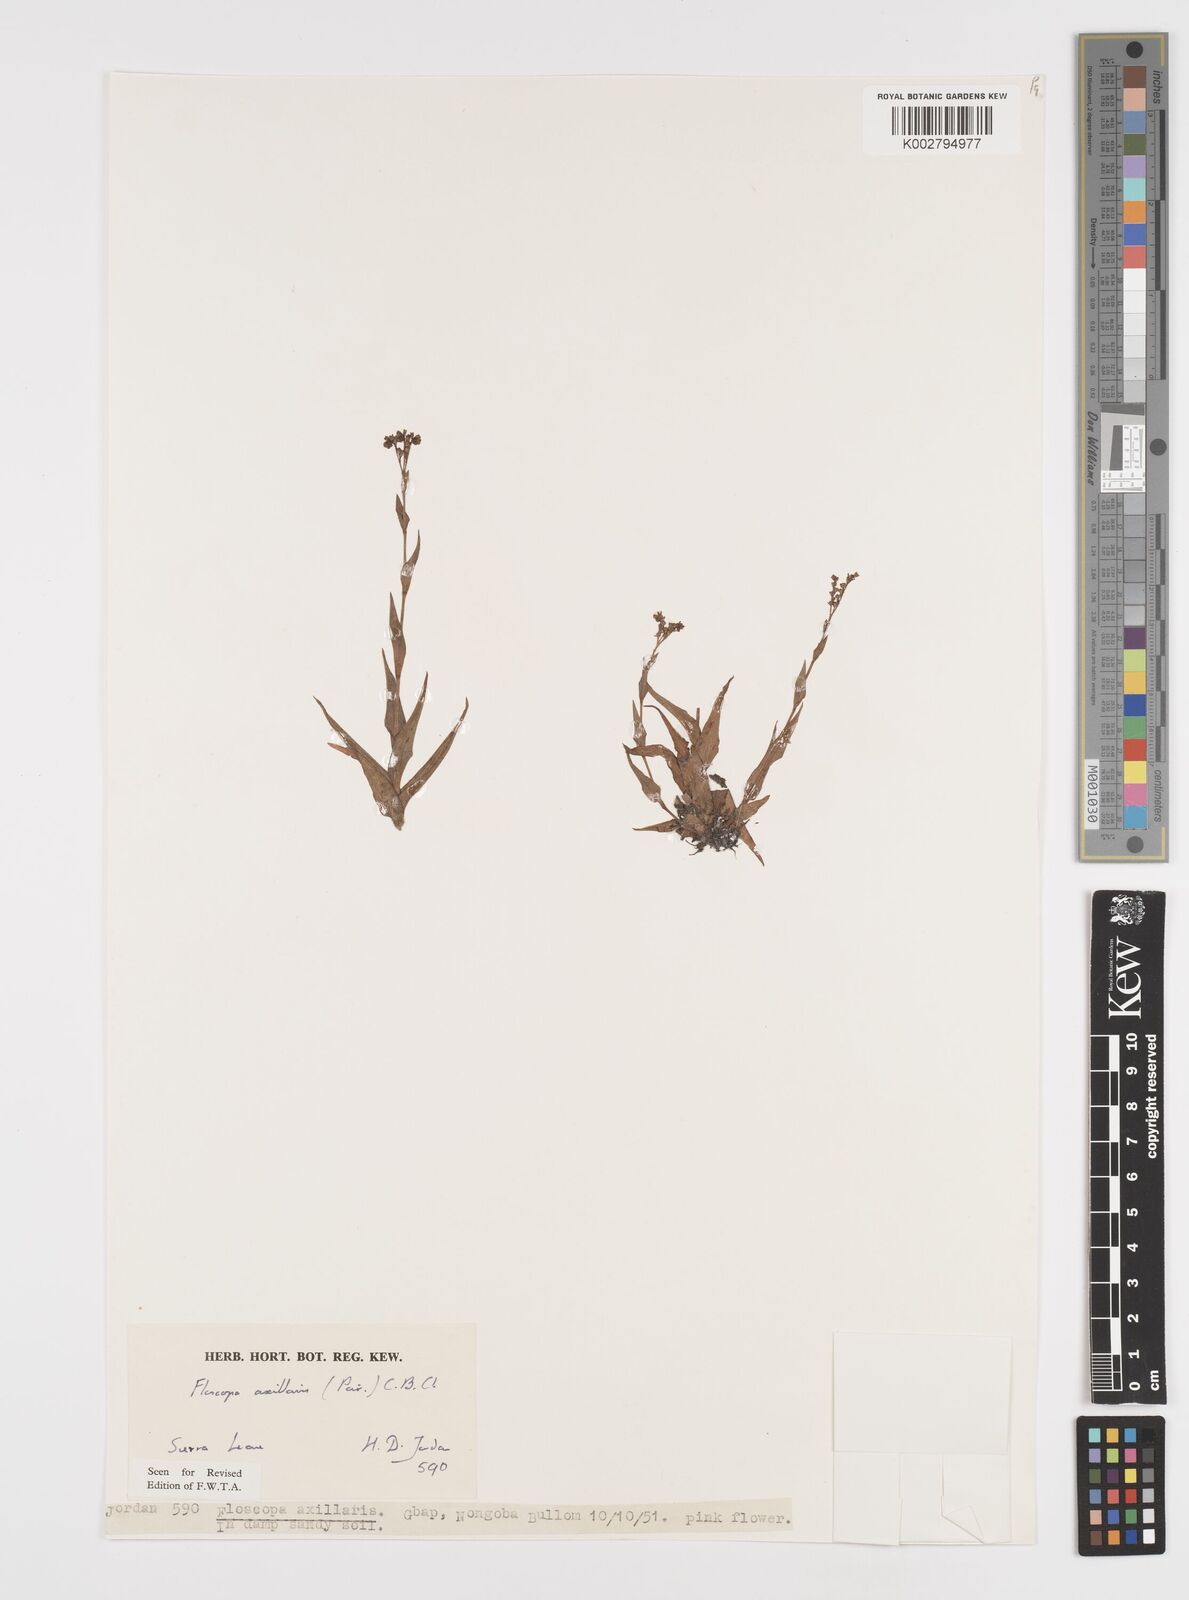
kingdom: Plantae
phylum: Tracheophyta
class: Liliopsida
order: Commelinales
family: Commelinaceae
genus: Floscopa
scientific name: Floscopa axillaris
